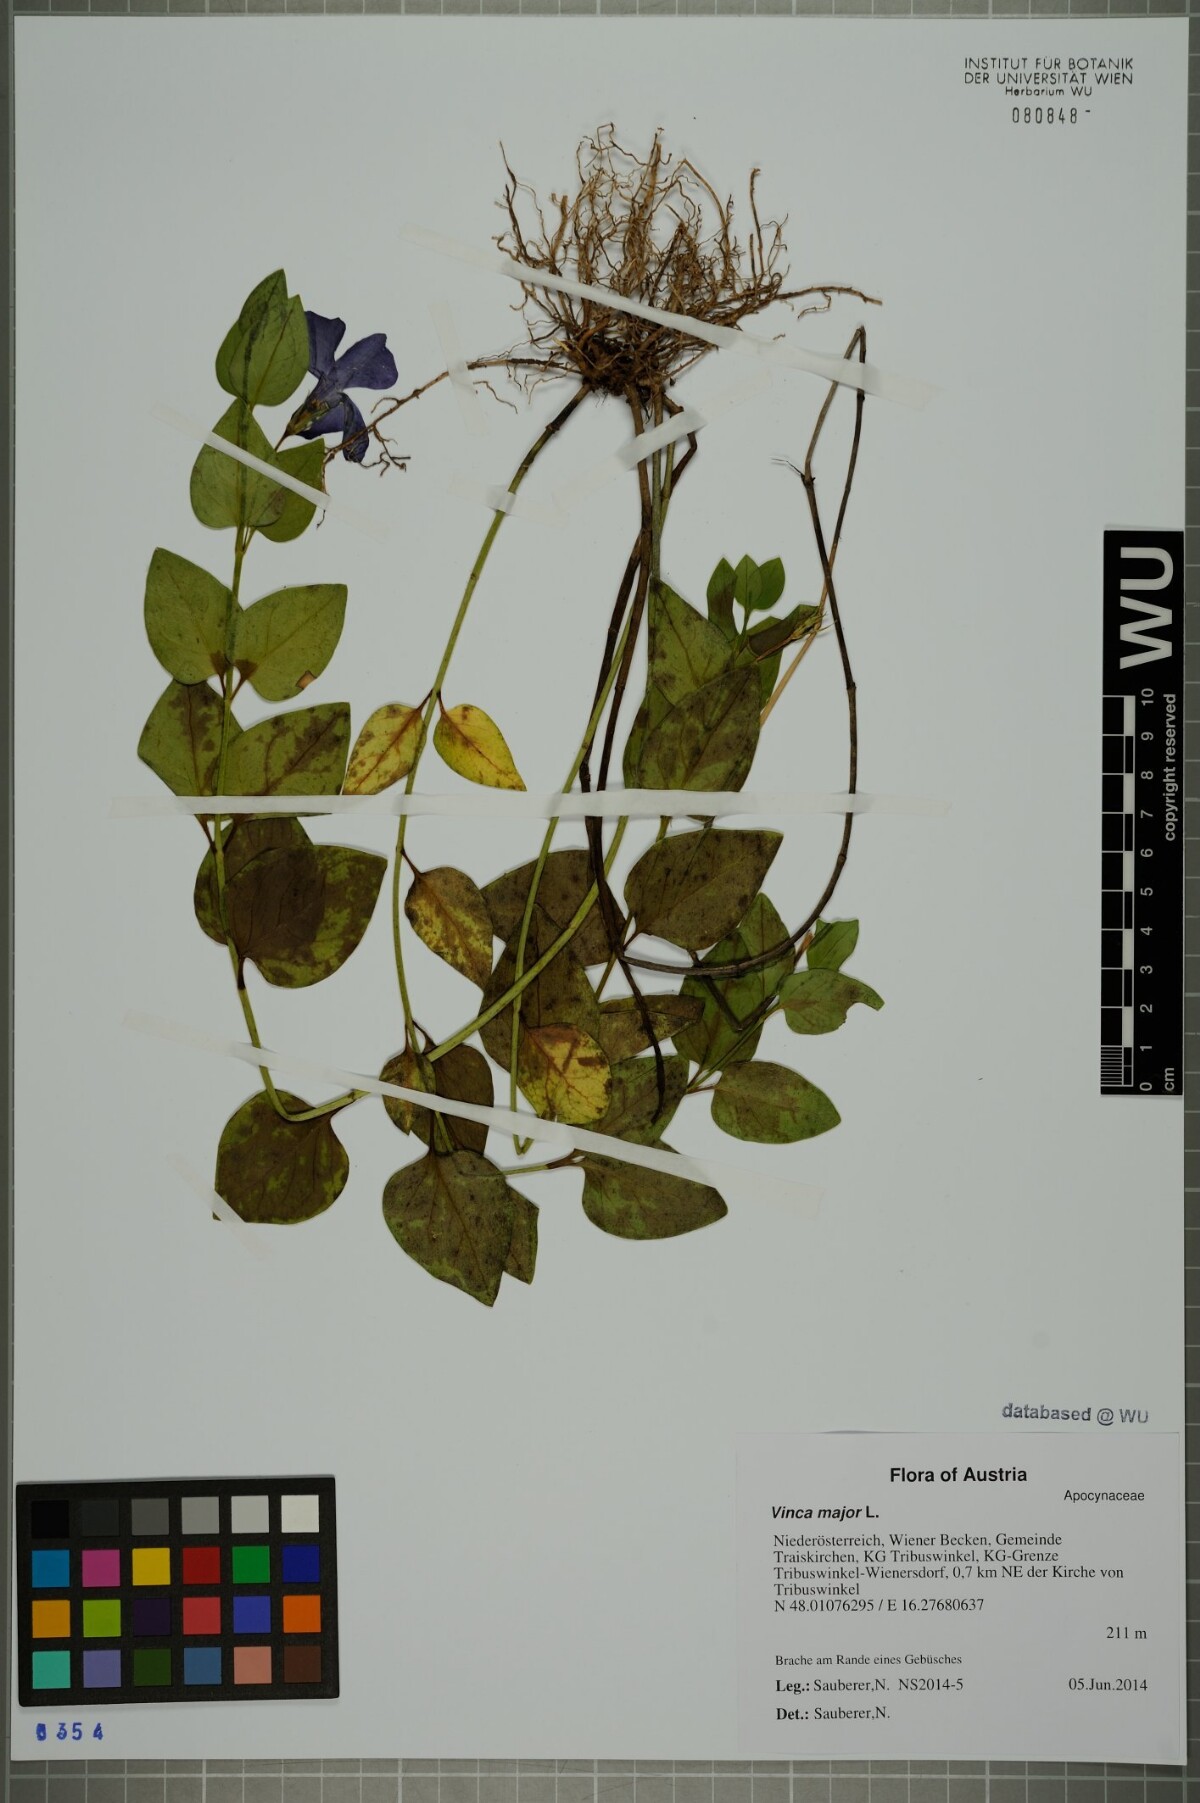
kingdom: Plantae
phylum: Tracheophyta
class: Magnoliopsida
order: Gentianales
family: Apocynaceae
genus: Vinca
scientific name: Vinca major
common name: Greater periwinkle
